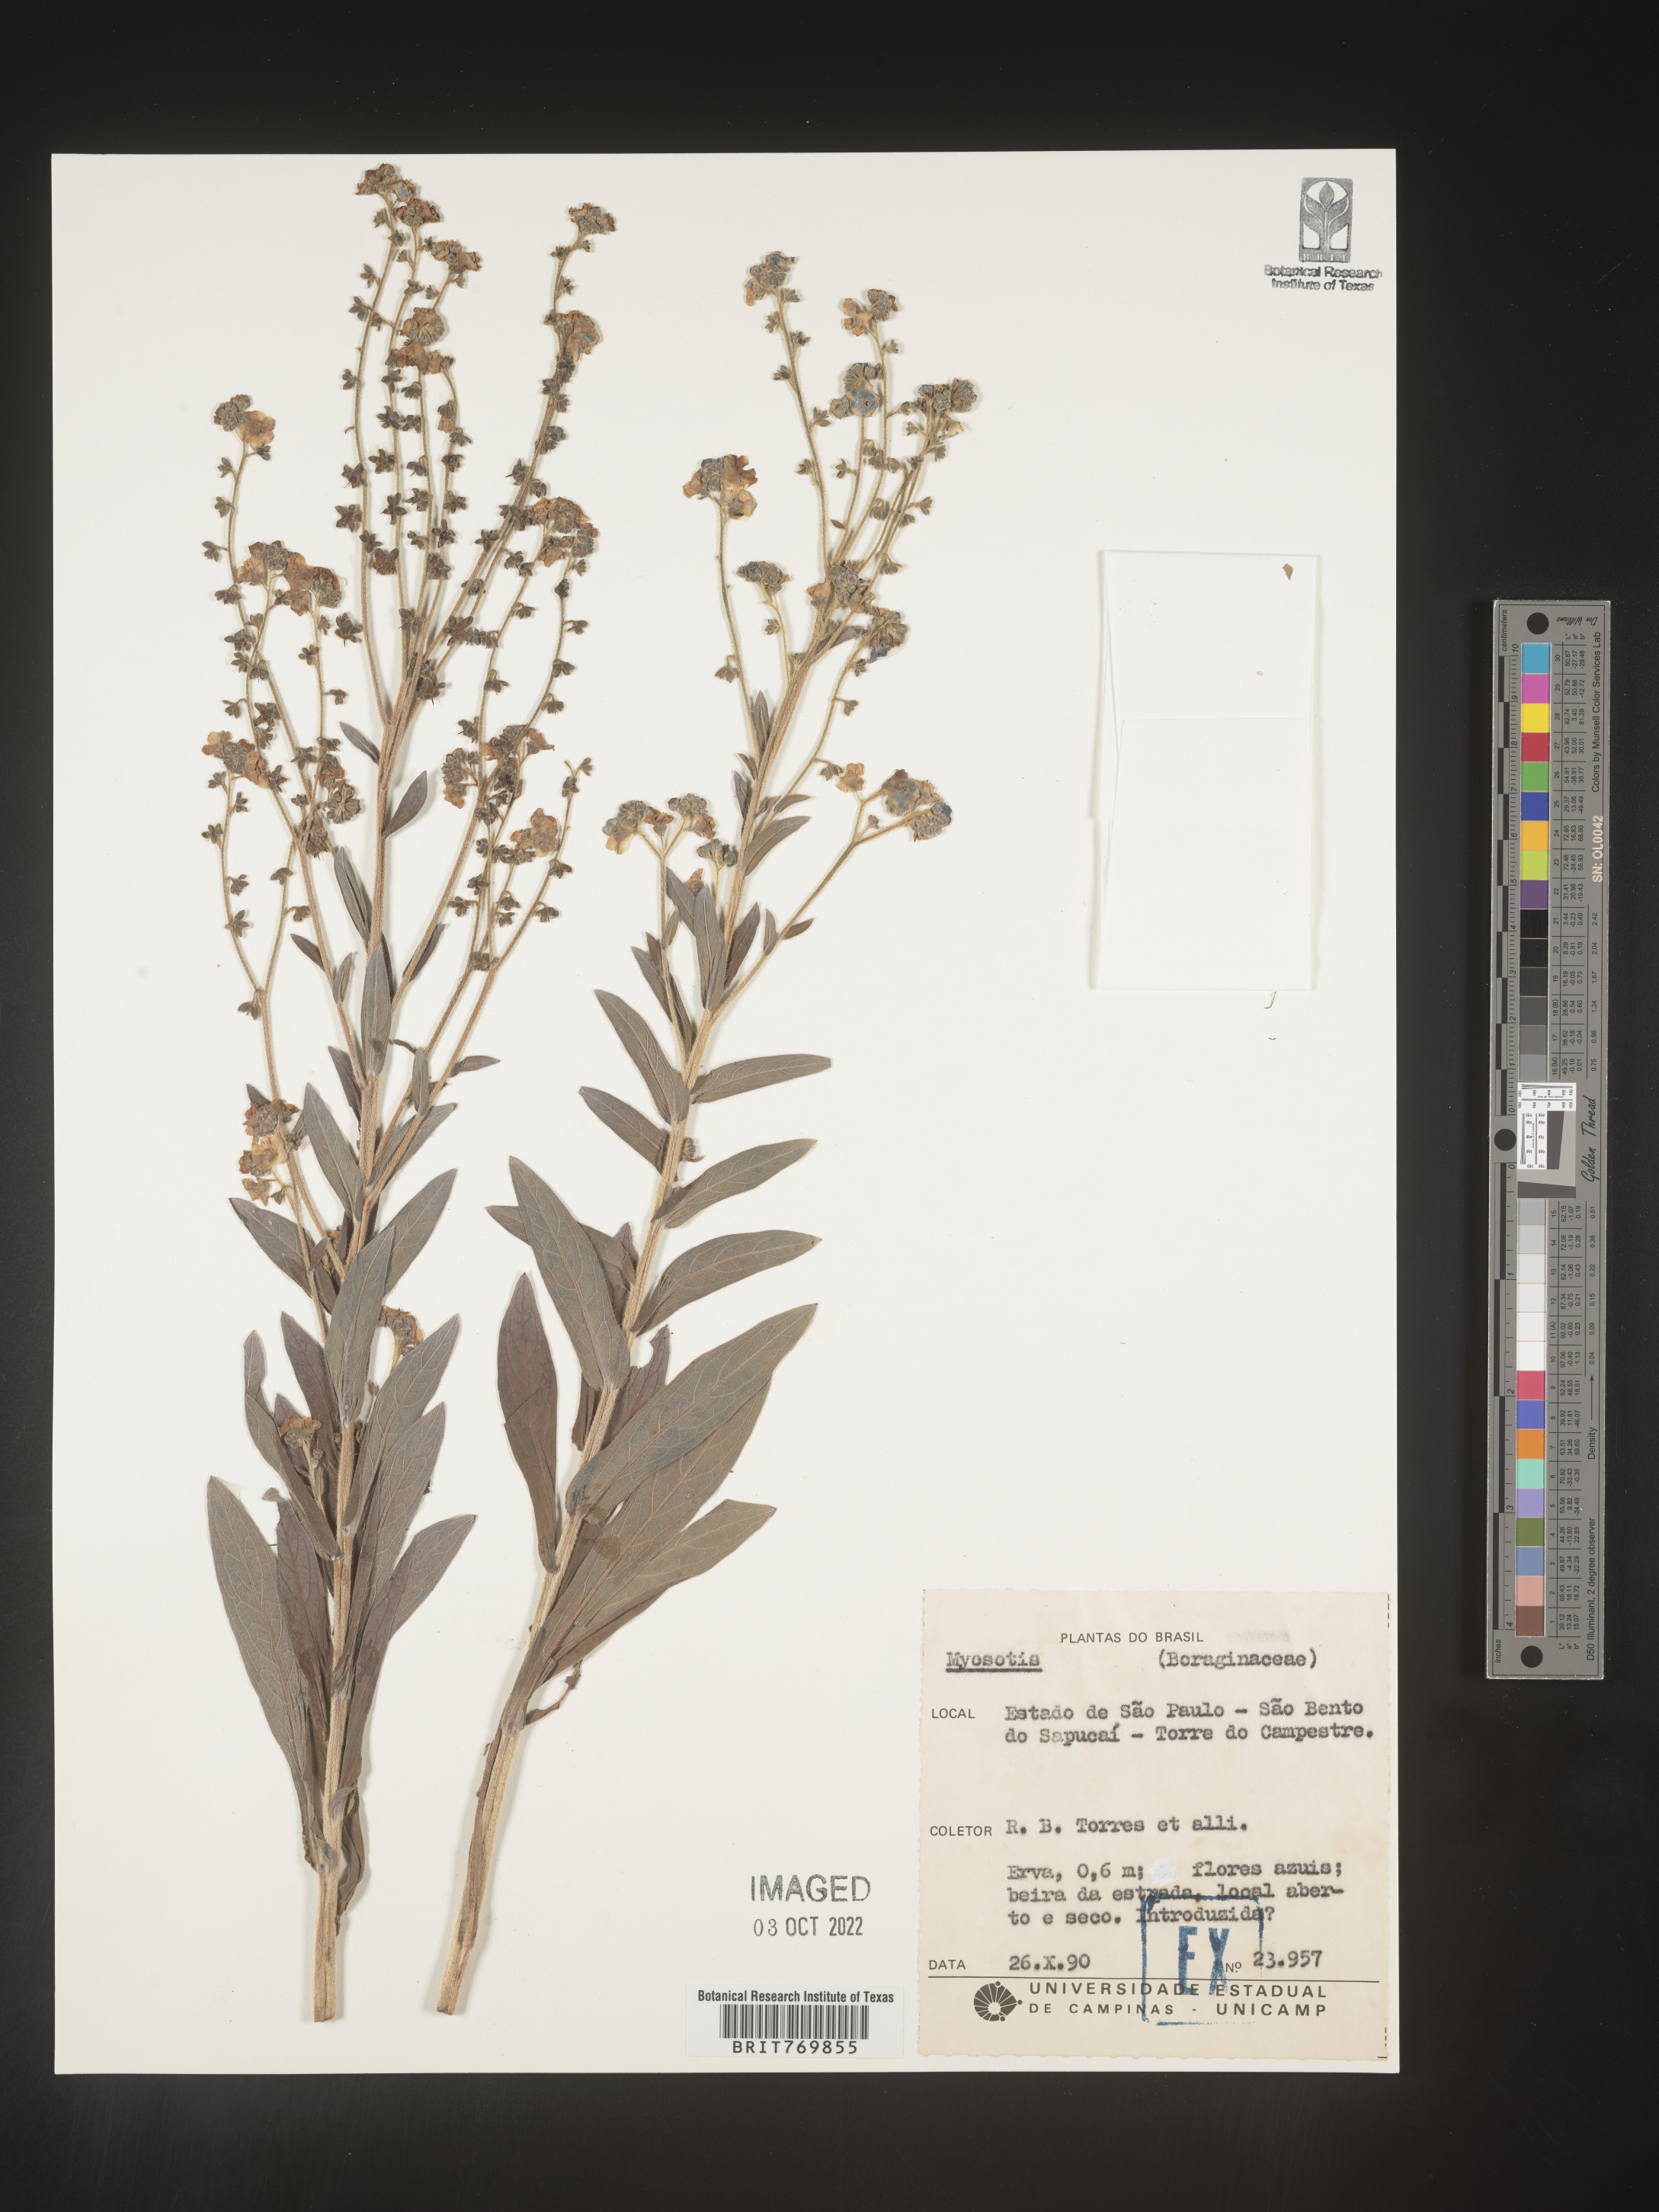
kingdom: Plantae
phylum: Tracheophyta
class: Magnoliopsida
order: Boraginales
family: Boraginaceae
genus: Myosotis
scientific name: Myosotis
